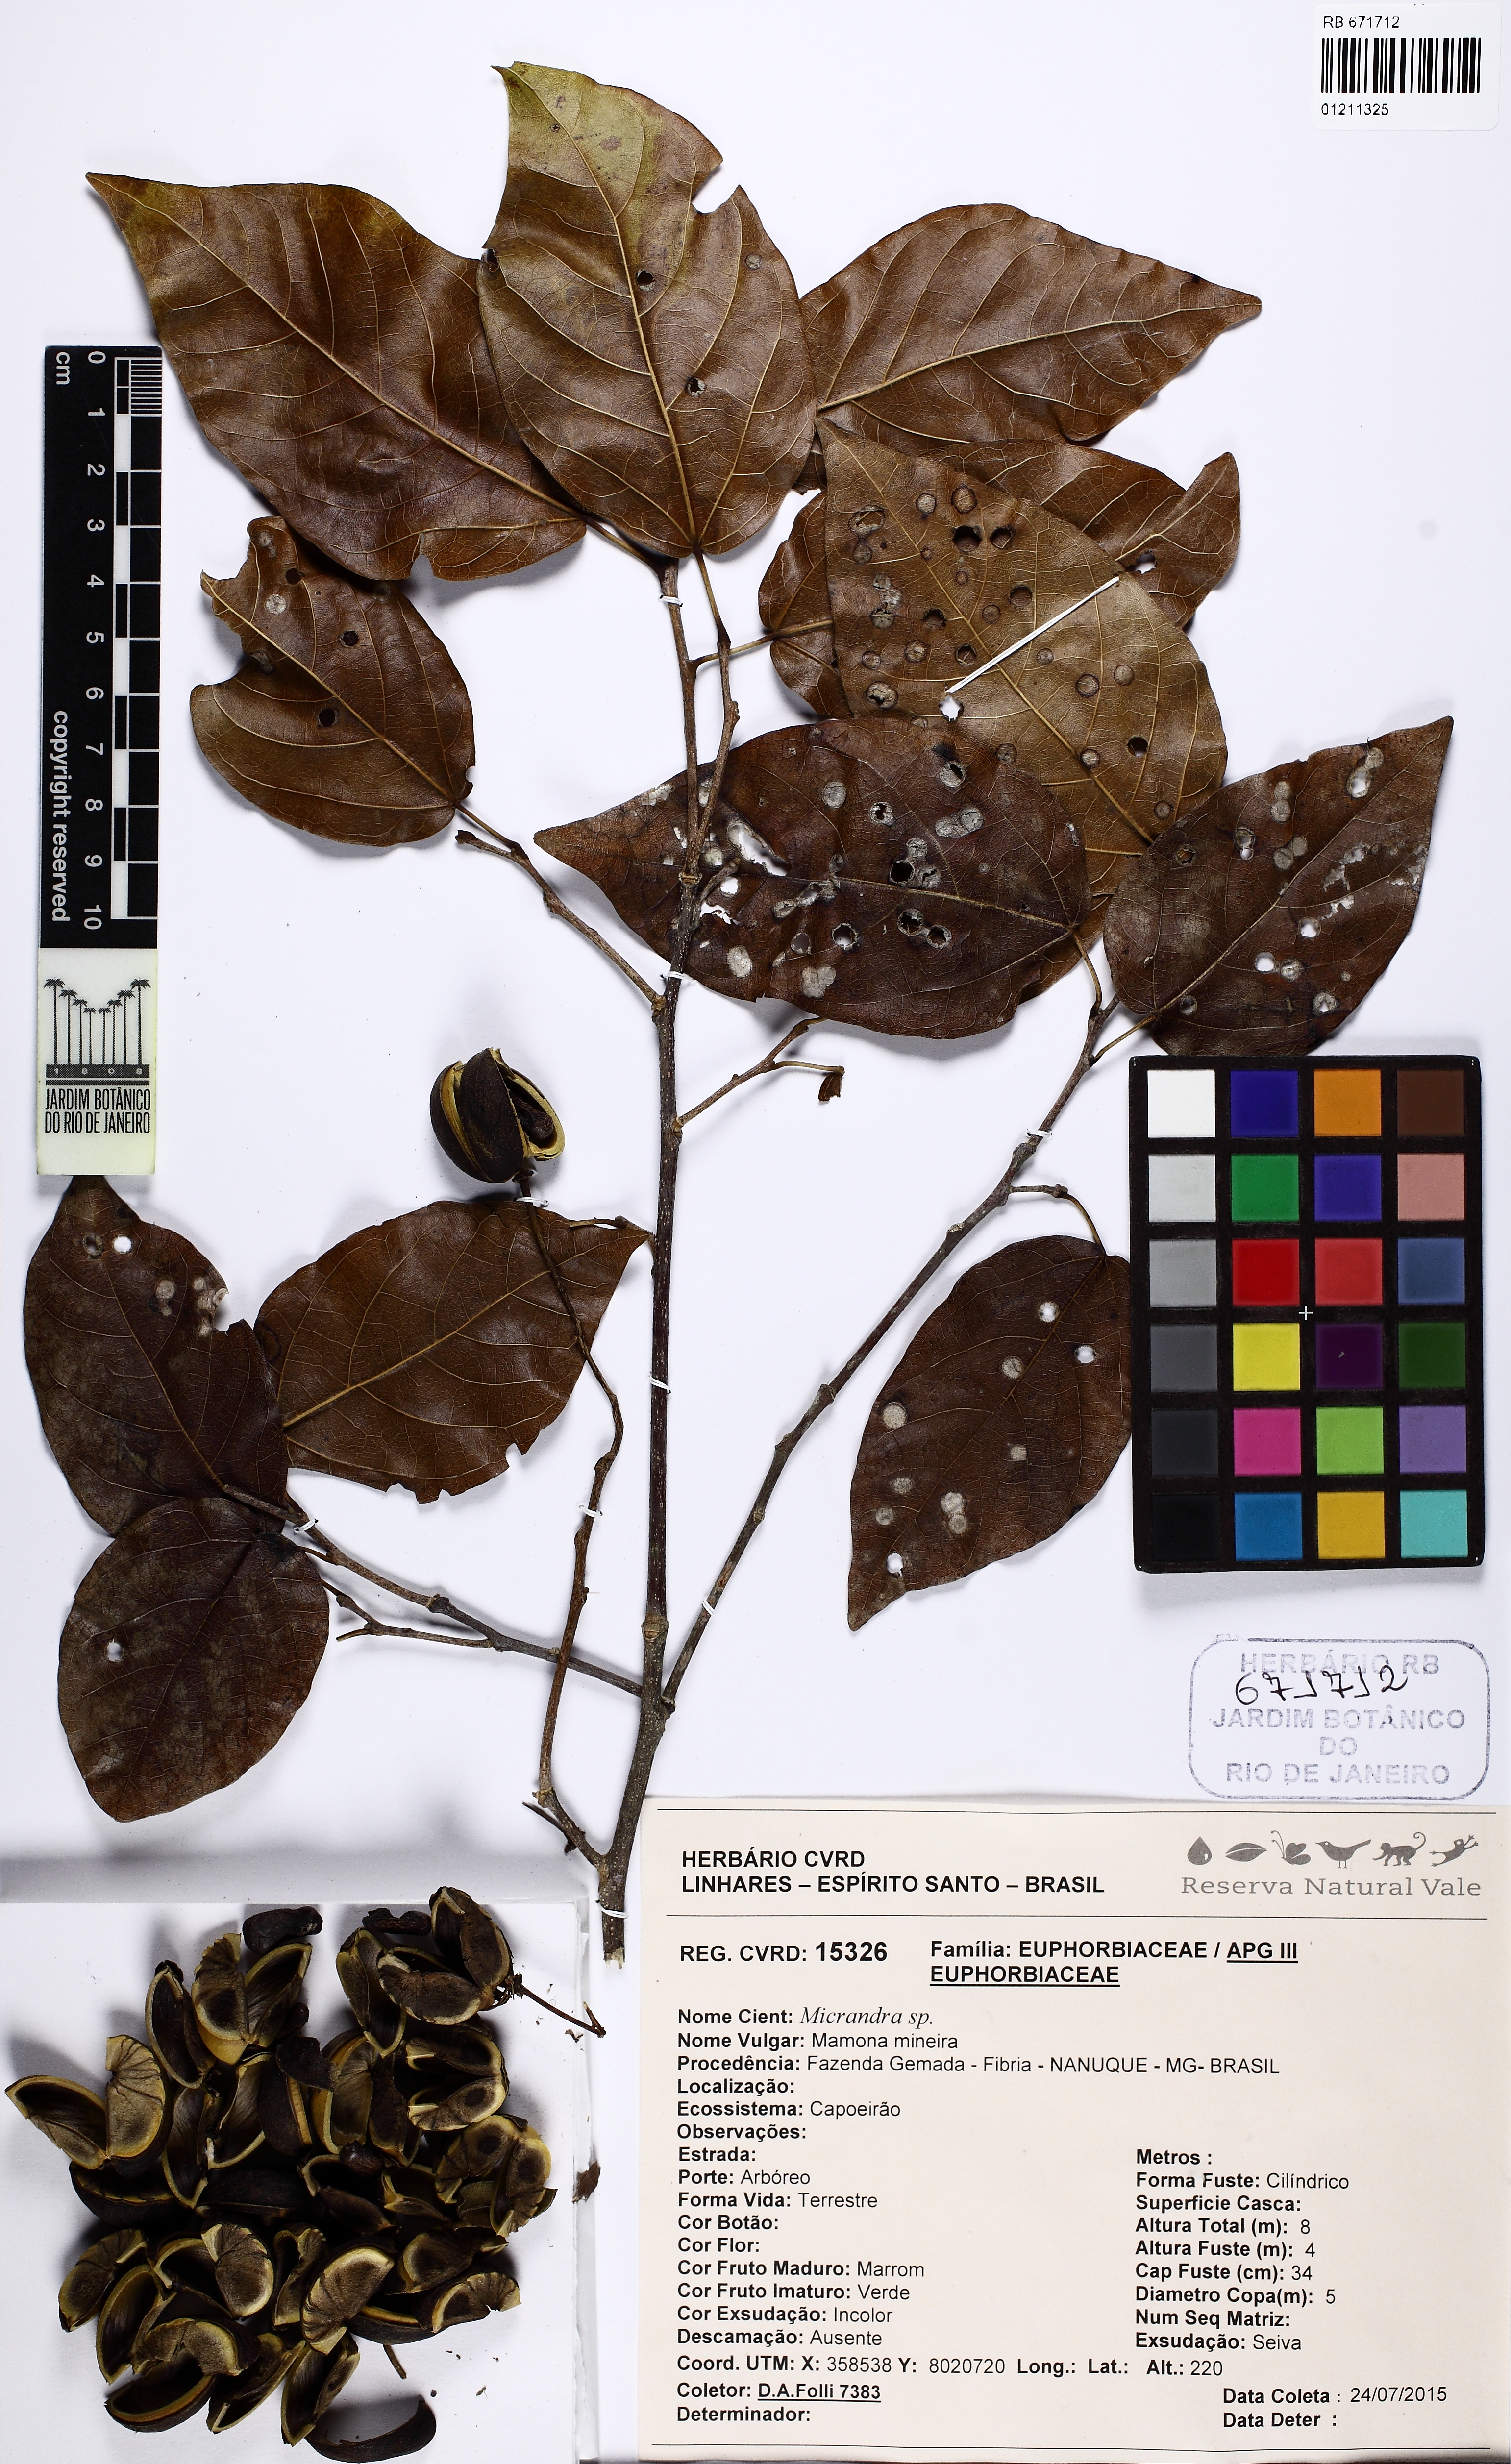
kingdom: Plantae
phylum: Tracheophyta
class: Magnoliopsida
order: Malpighiales
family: Euphorbiaceae
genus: Micrandra
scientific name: Micrandra
